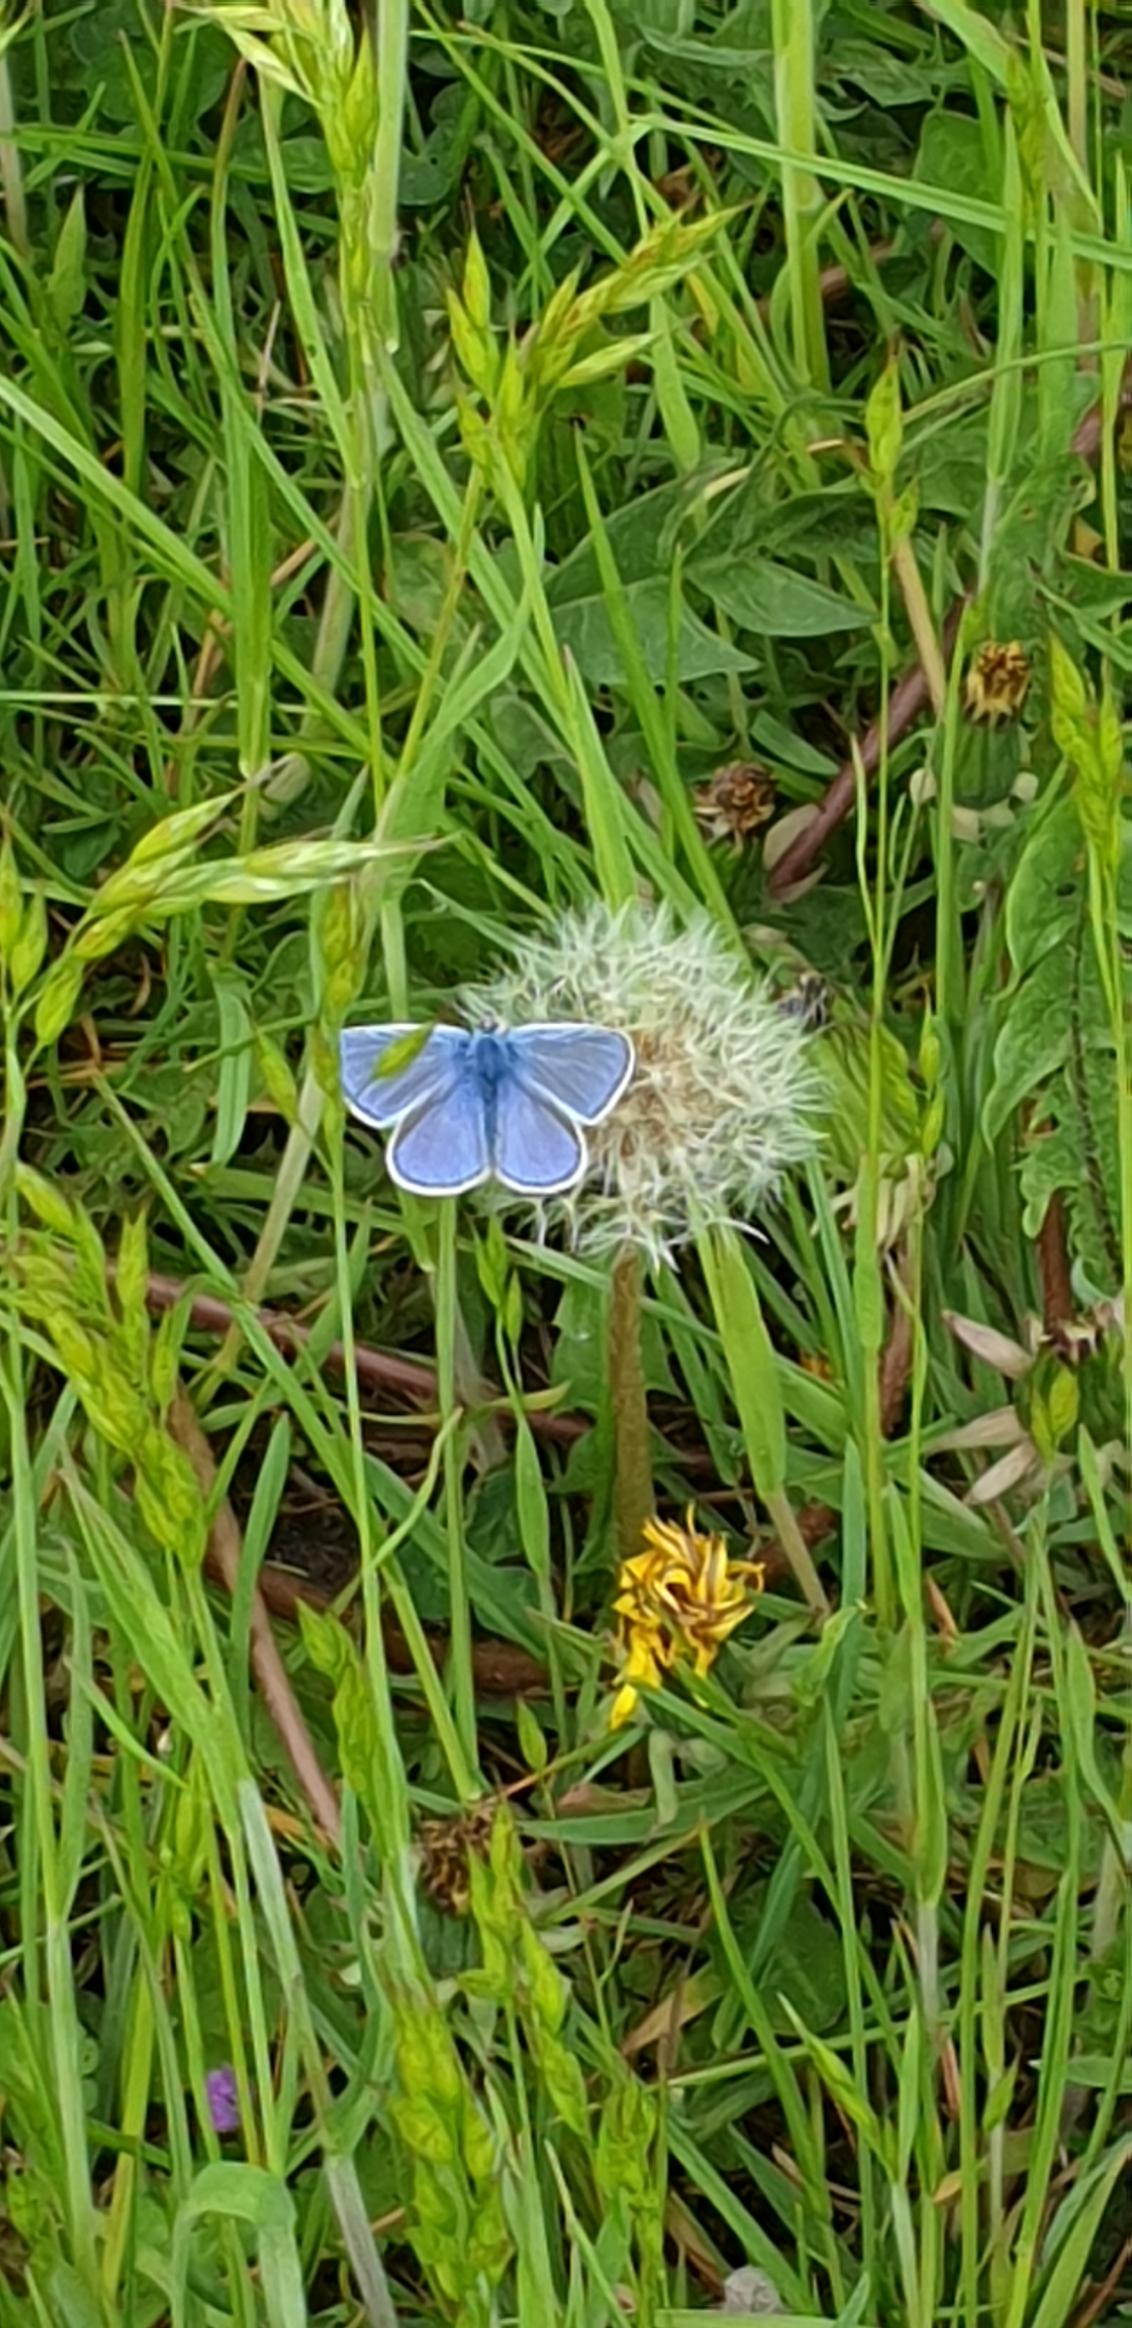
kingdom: Animalia
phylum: Arthropoda
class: Insecta
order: Lepidoptera
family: Lycaenidae
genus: Polyommatus
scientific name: Polyommatus icarus
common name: Almindelig blåfugl
